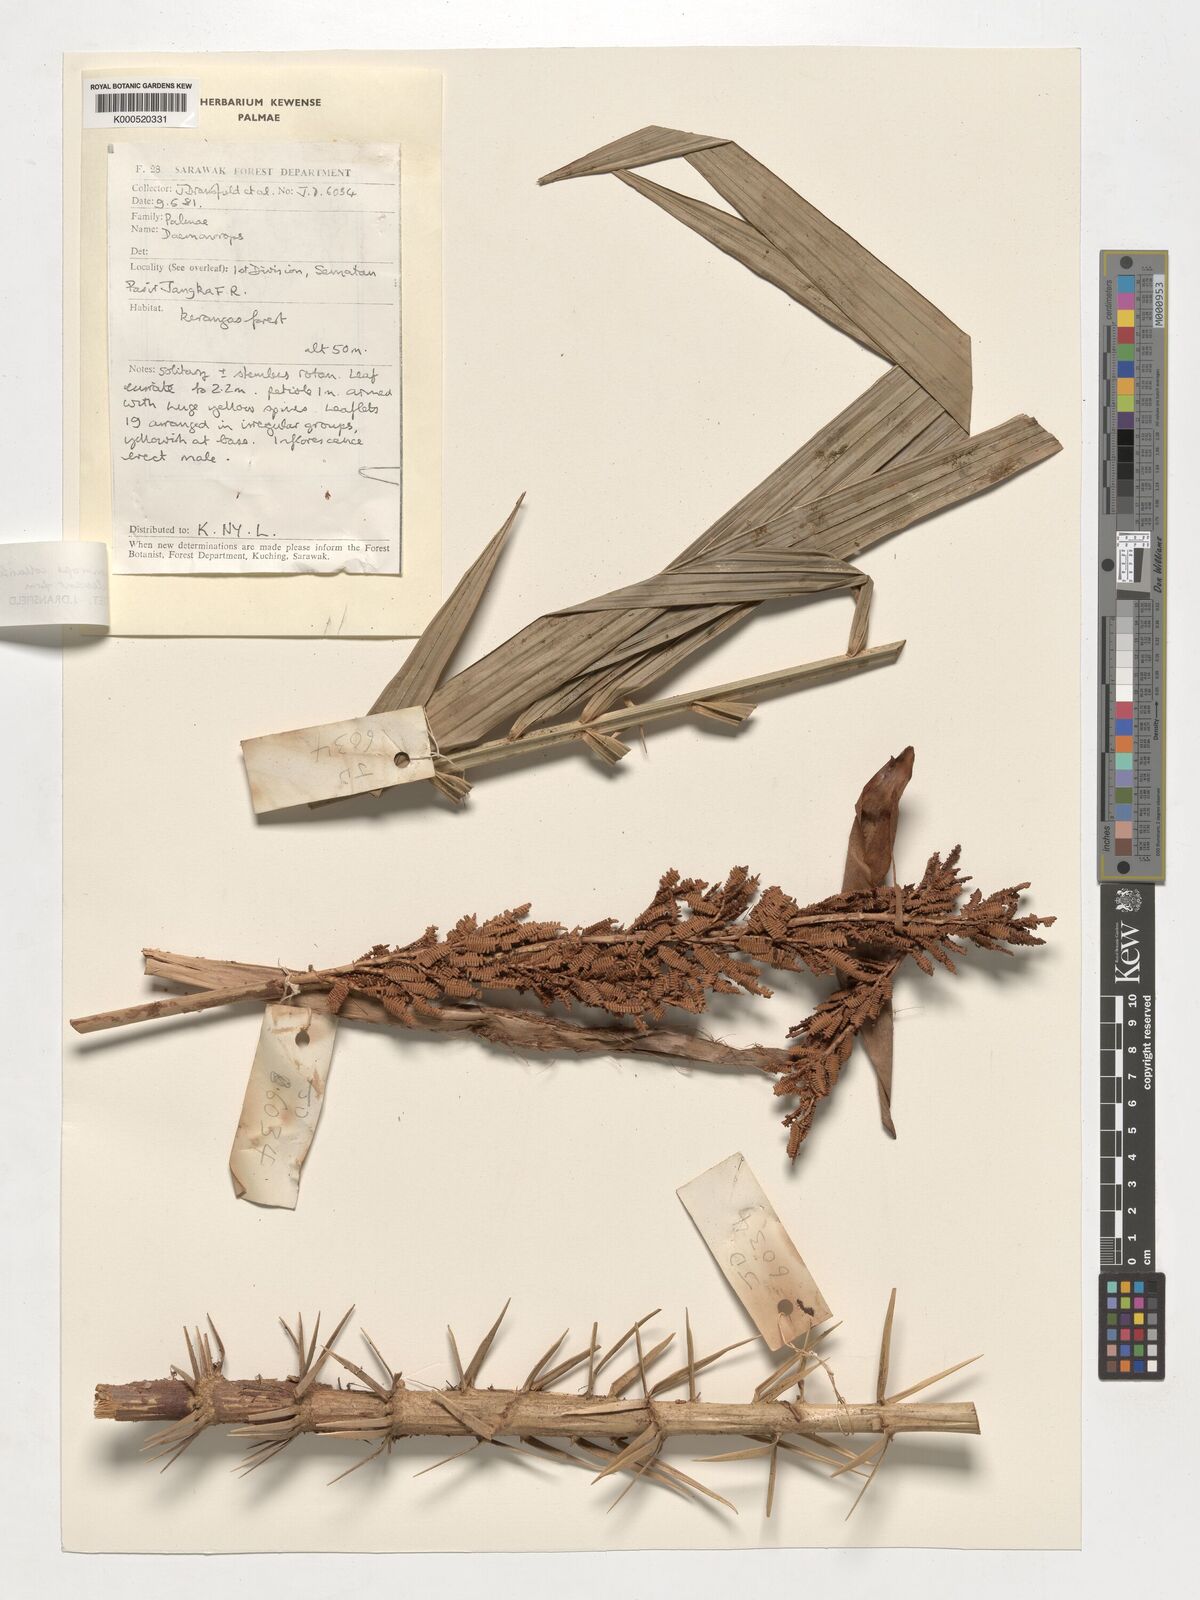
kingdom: Plantae
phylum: Tracheophyta
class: Liliopsida
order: Arecales
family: Arecaceae
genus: Calamus
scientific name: Calamus geniculatus
